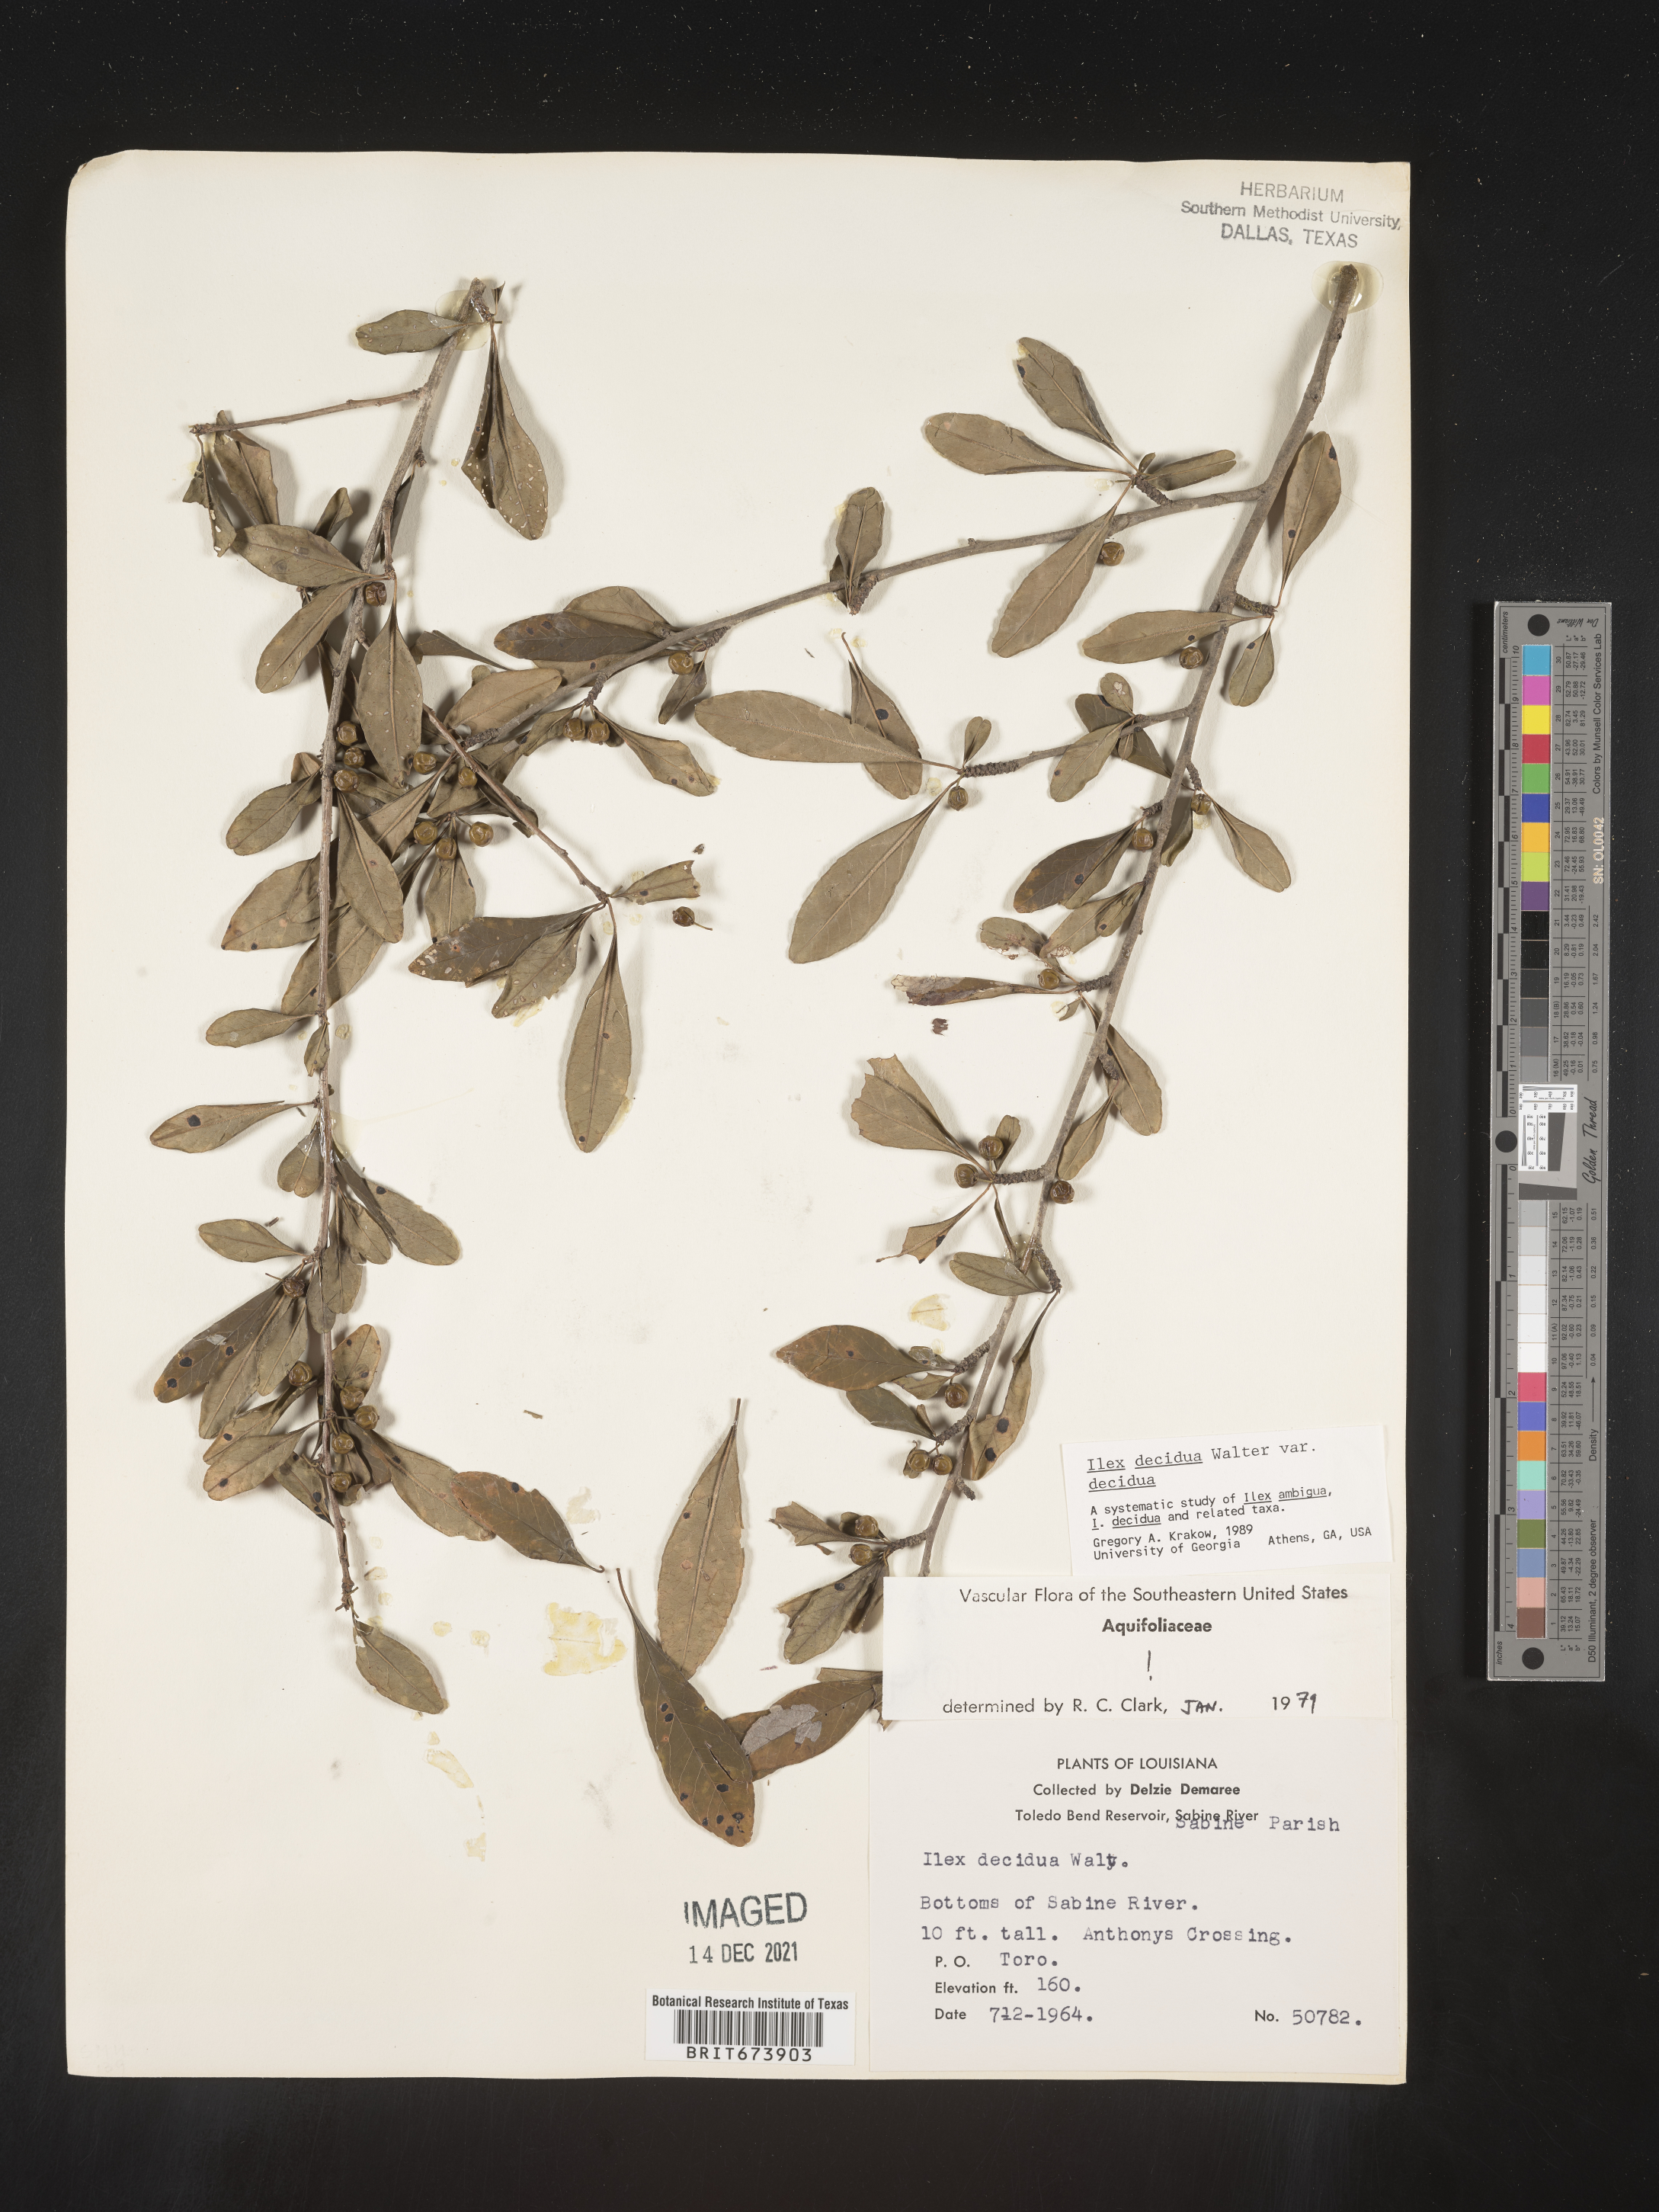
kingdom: Plantae
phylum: Tracheophyta
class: Magnoliopsida
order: Aquifoliales
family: Aquifoliaceae
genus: Ilex
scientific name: Ilex decidua
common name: Possum-haw
